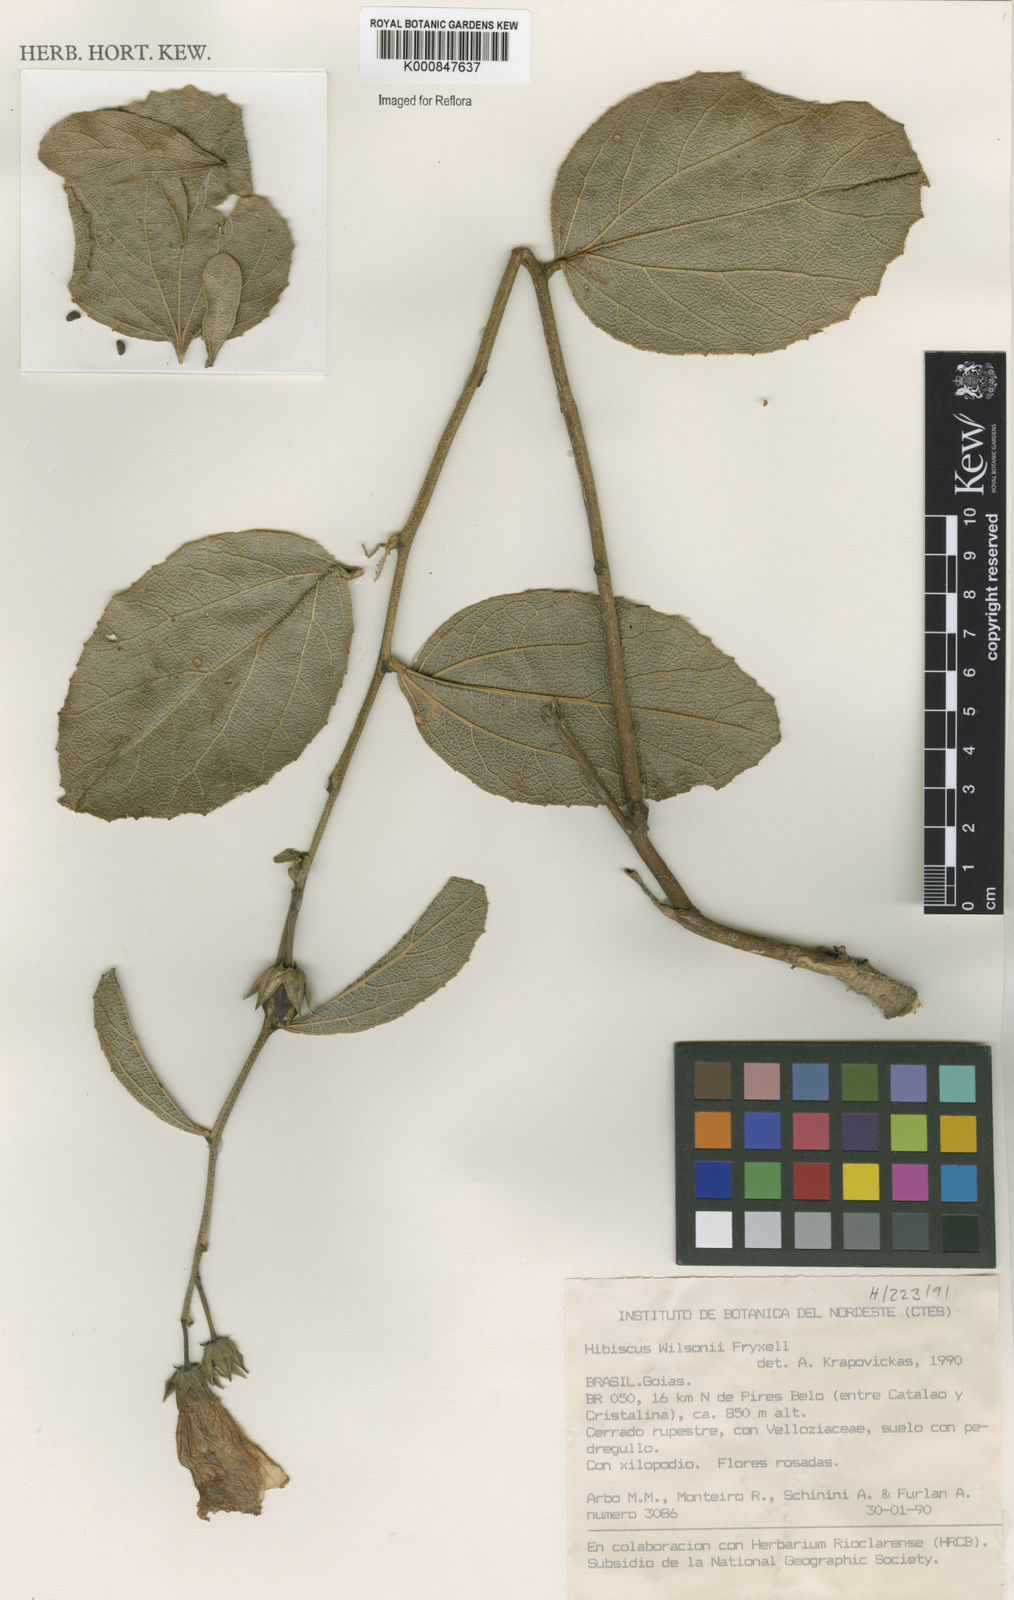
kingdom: Plantae
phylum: Tracheophyta
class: Magnoliopsida
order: Malvales
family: Malvaceae
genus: Hibiscus
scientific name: Hibiscus wilsonii
